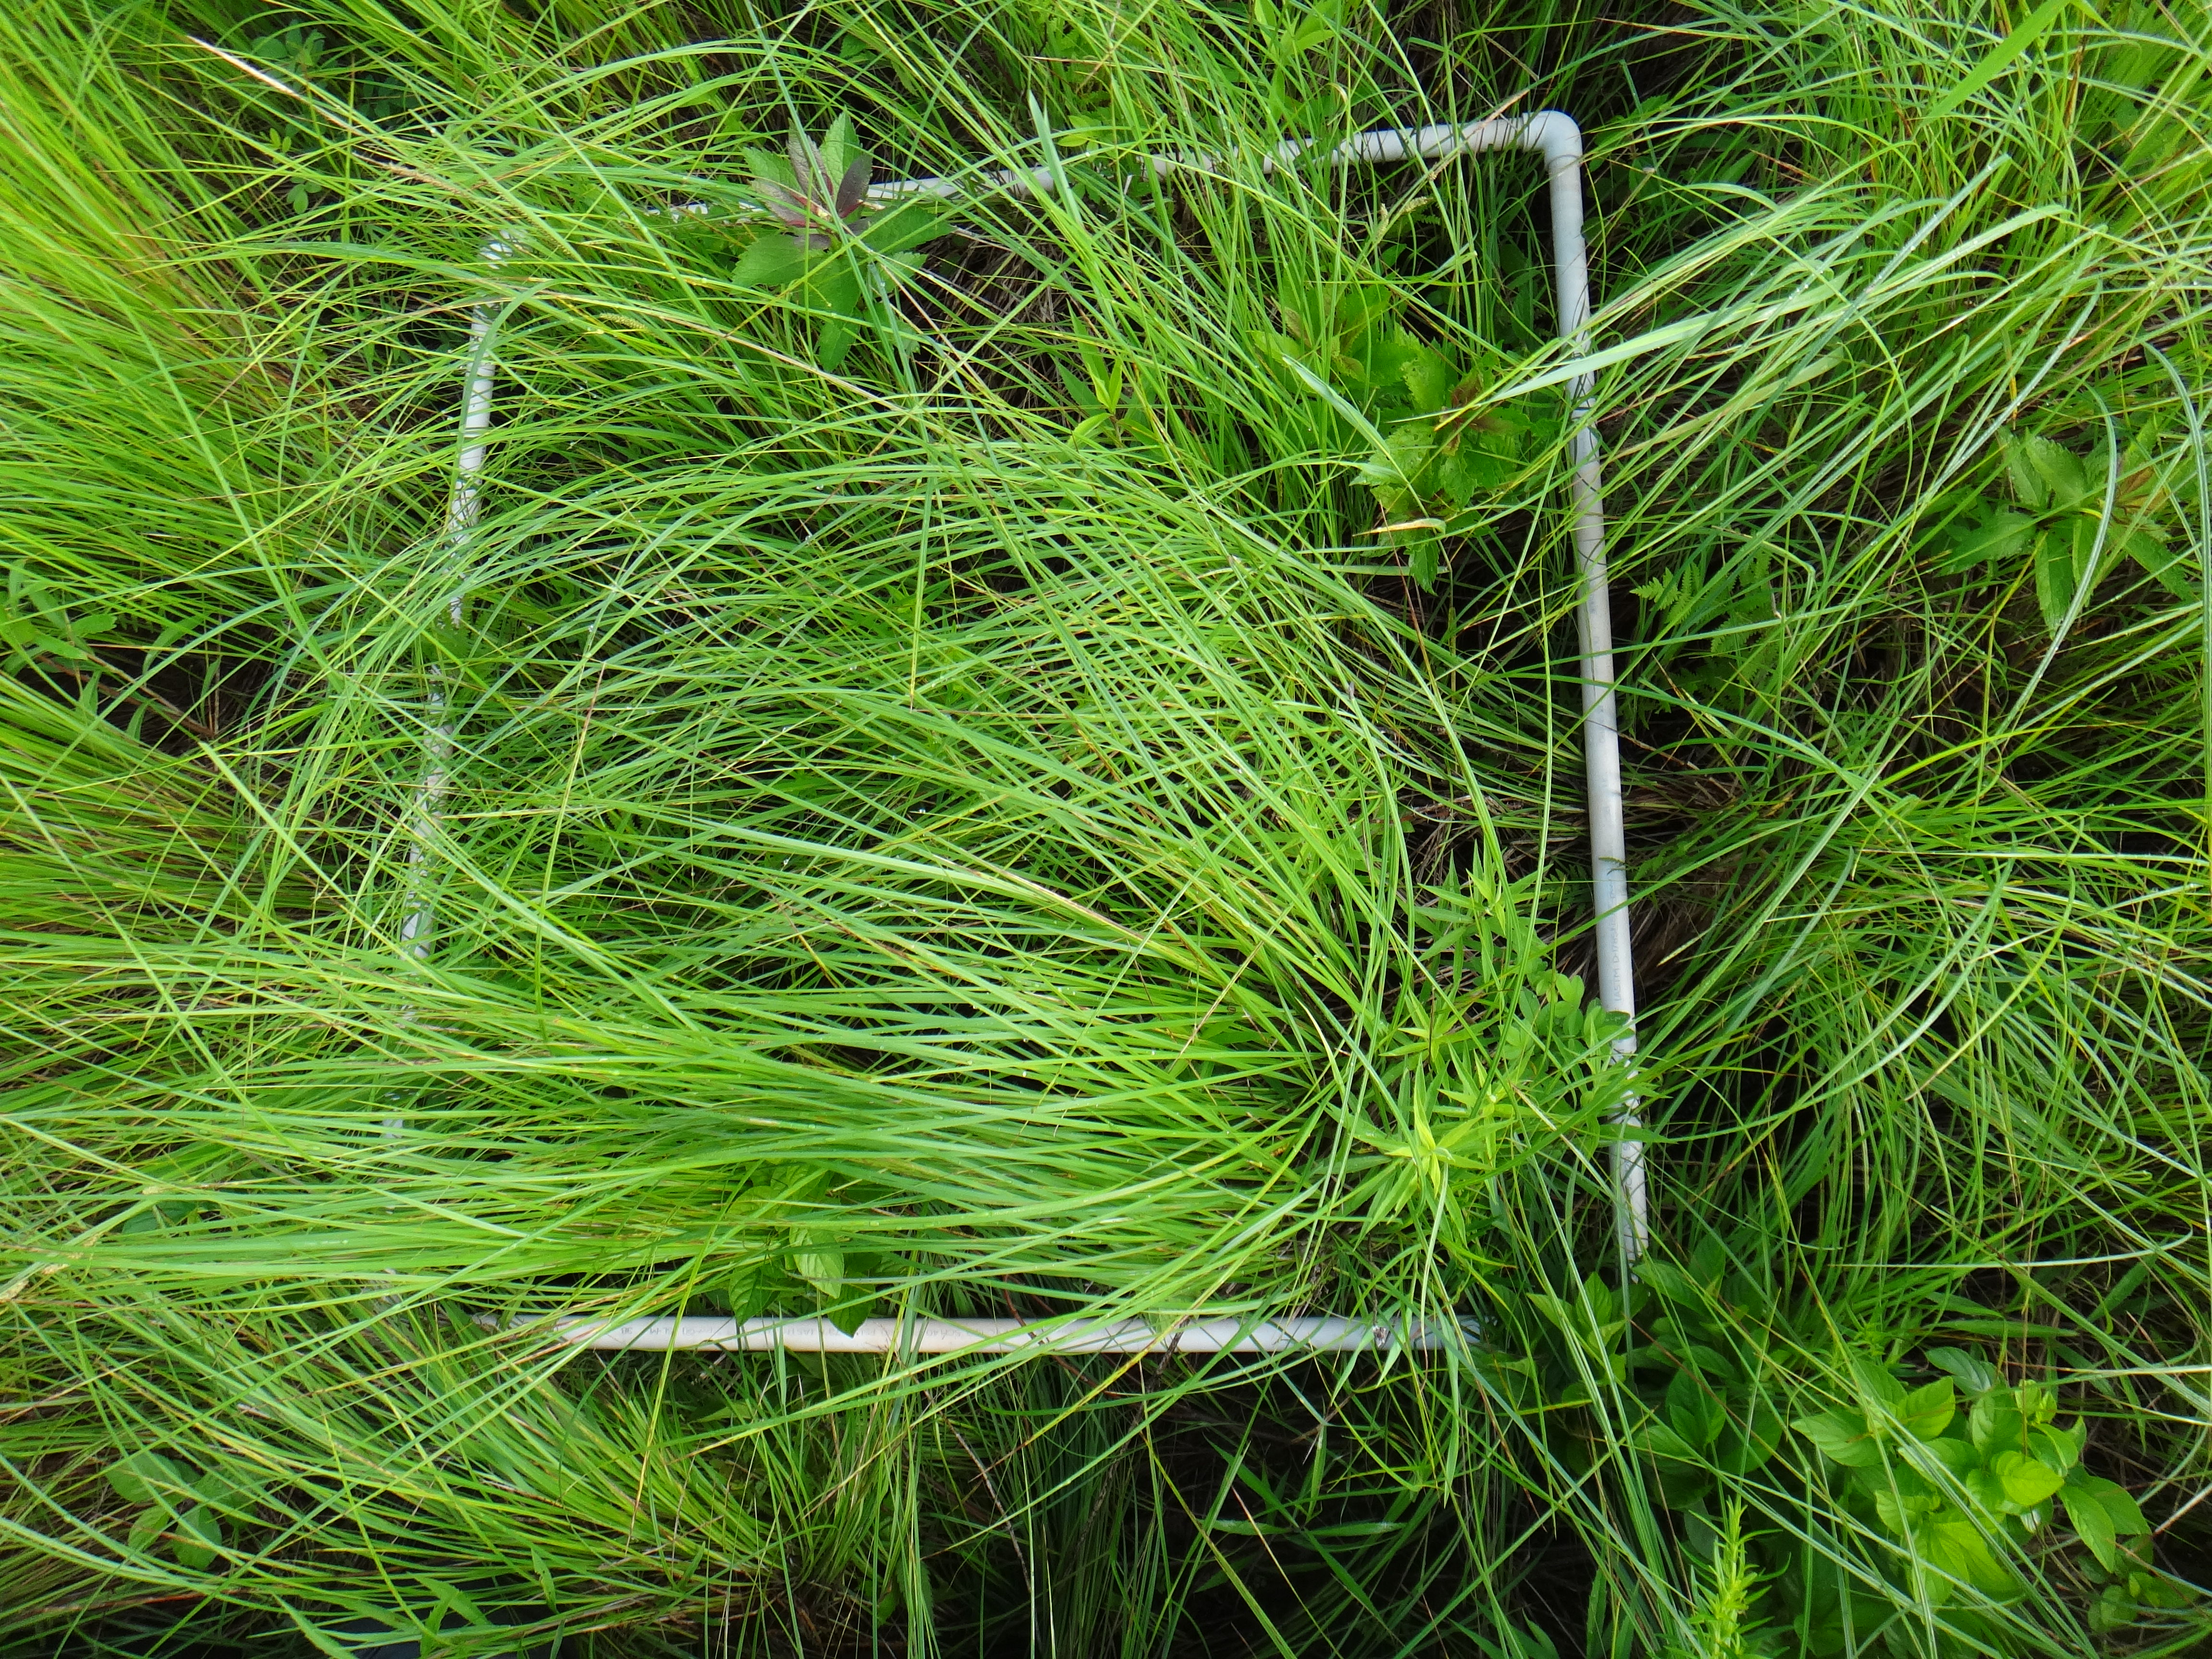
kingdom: Plantae
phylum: Tracheophyta
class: Liliopsida
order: Poales
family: Poaceae
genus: Calamagrostis
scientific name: Calamagrostis canadensis
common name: Canada bluejoint
